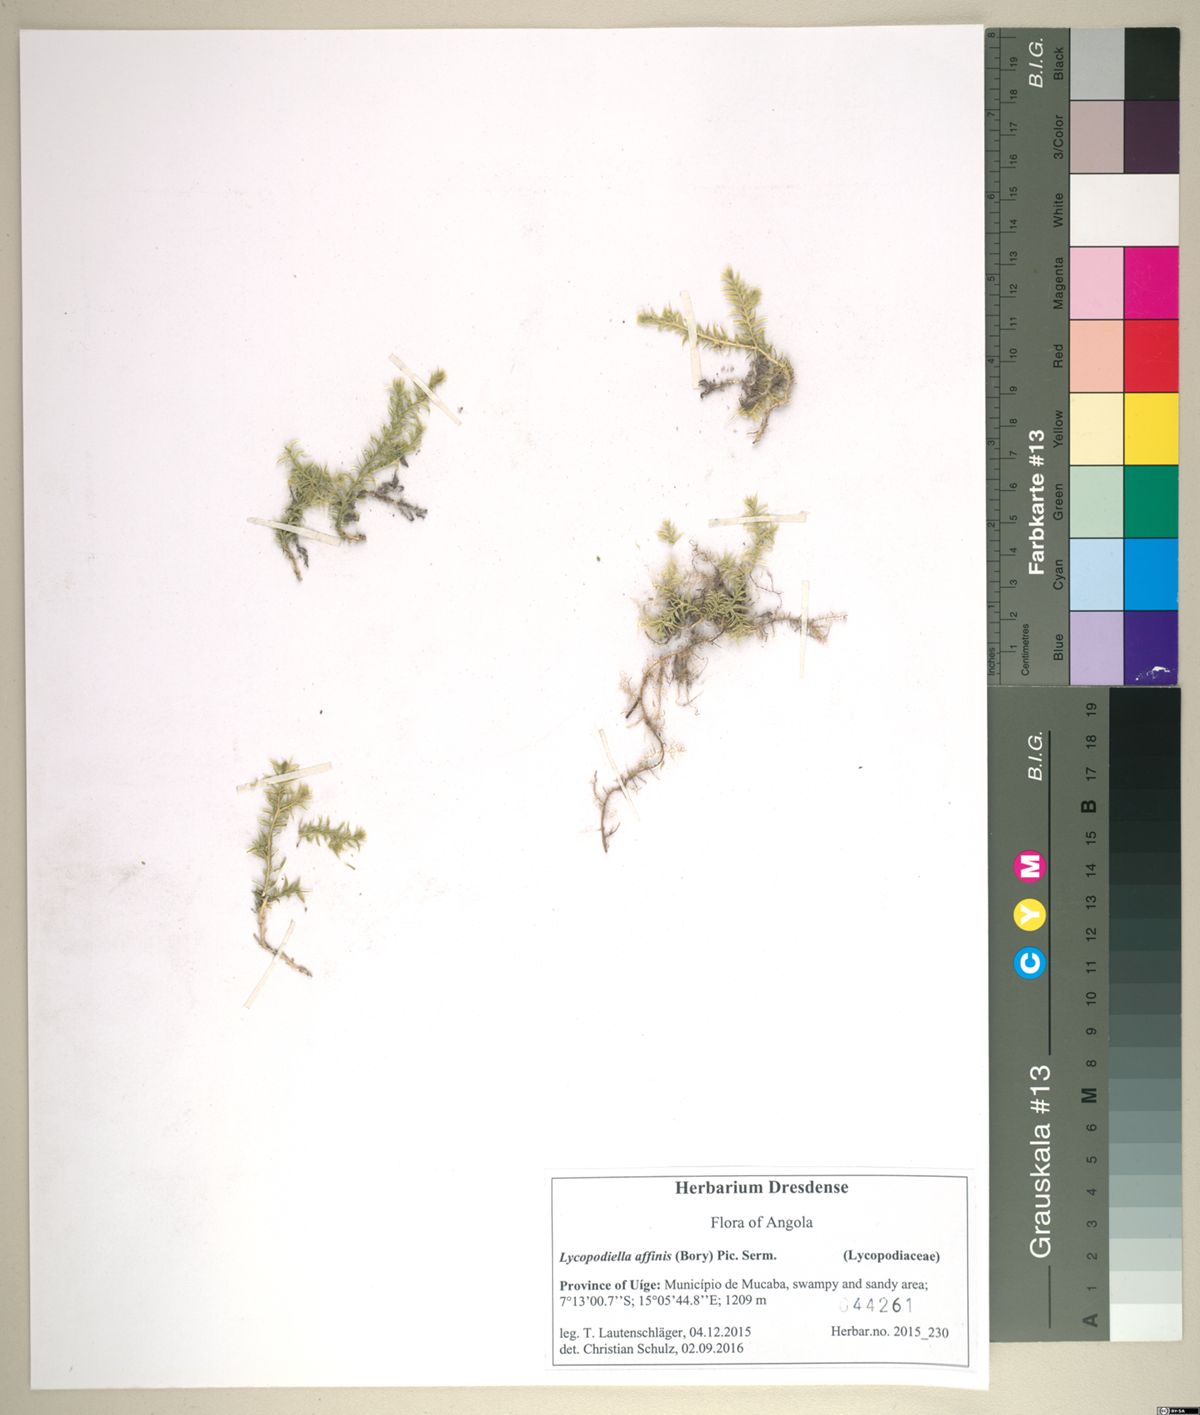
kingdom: Plantae
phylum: Tracheophyta
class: Lycopodiopsida
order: Lycopodiales
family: Lycopodiaceae
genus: Pseudolycopodiella
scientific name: Pseudolycopodiella caroliniana
